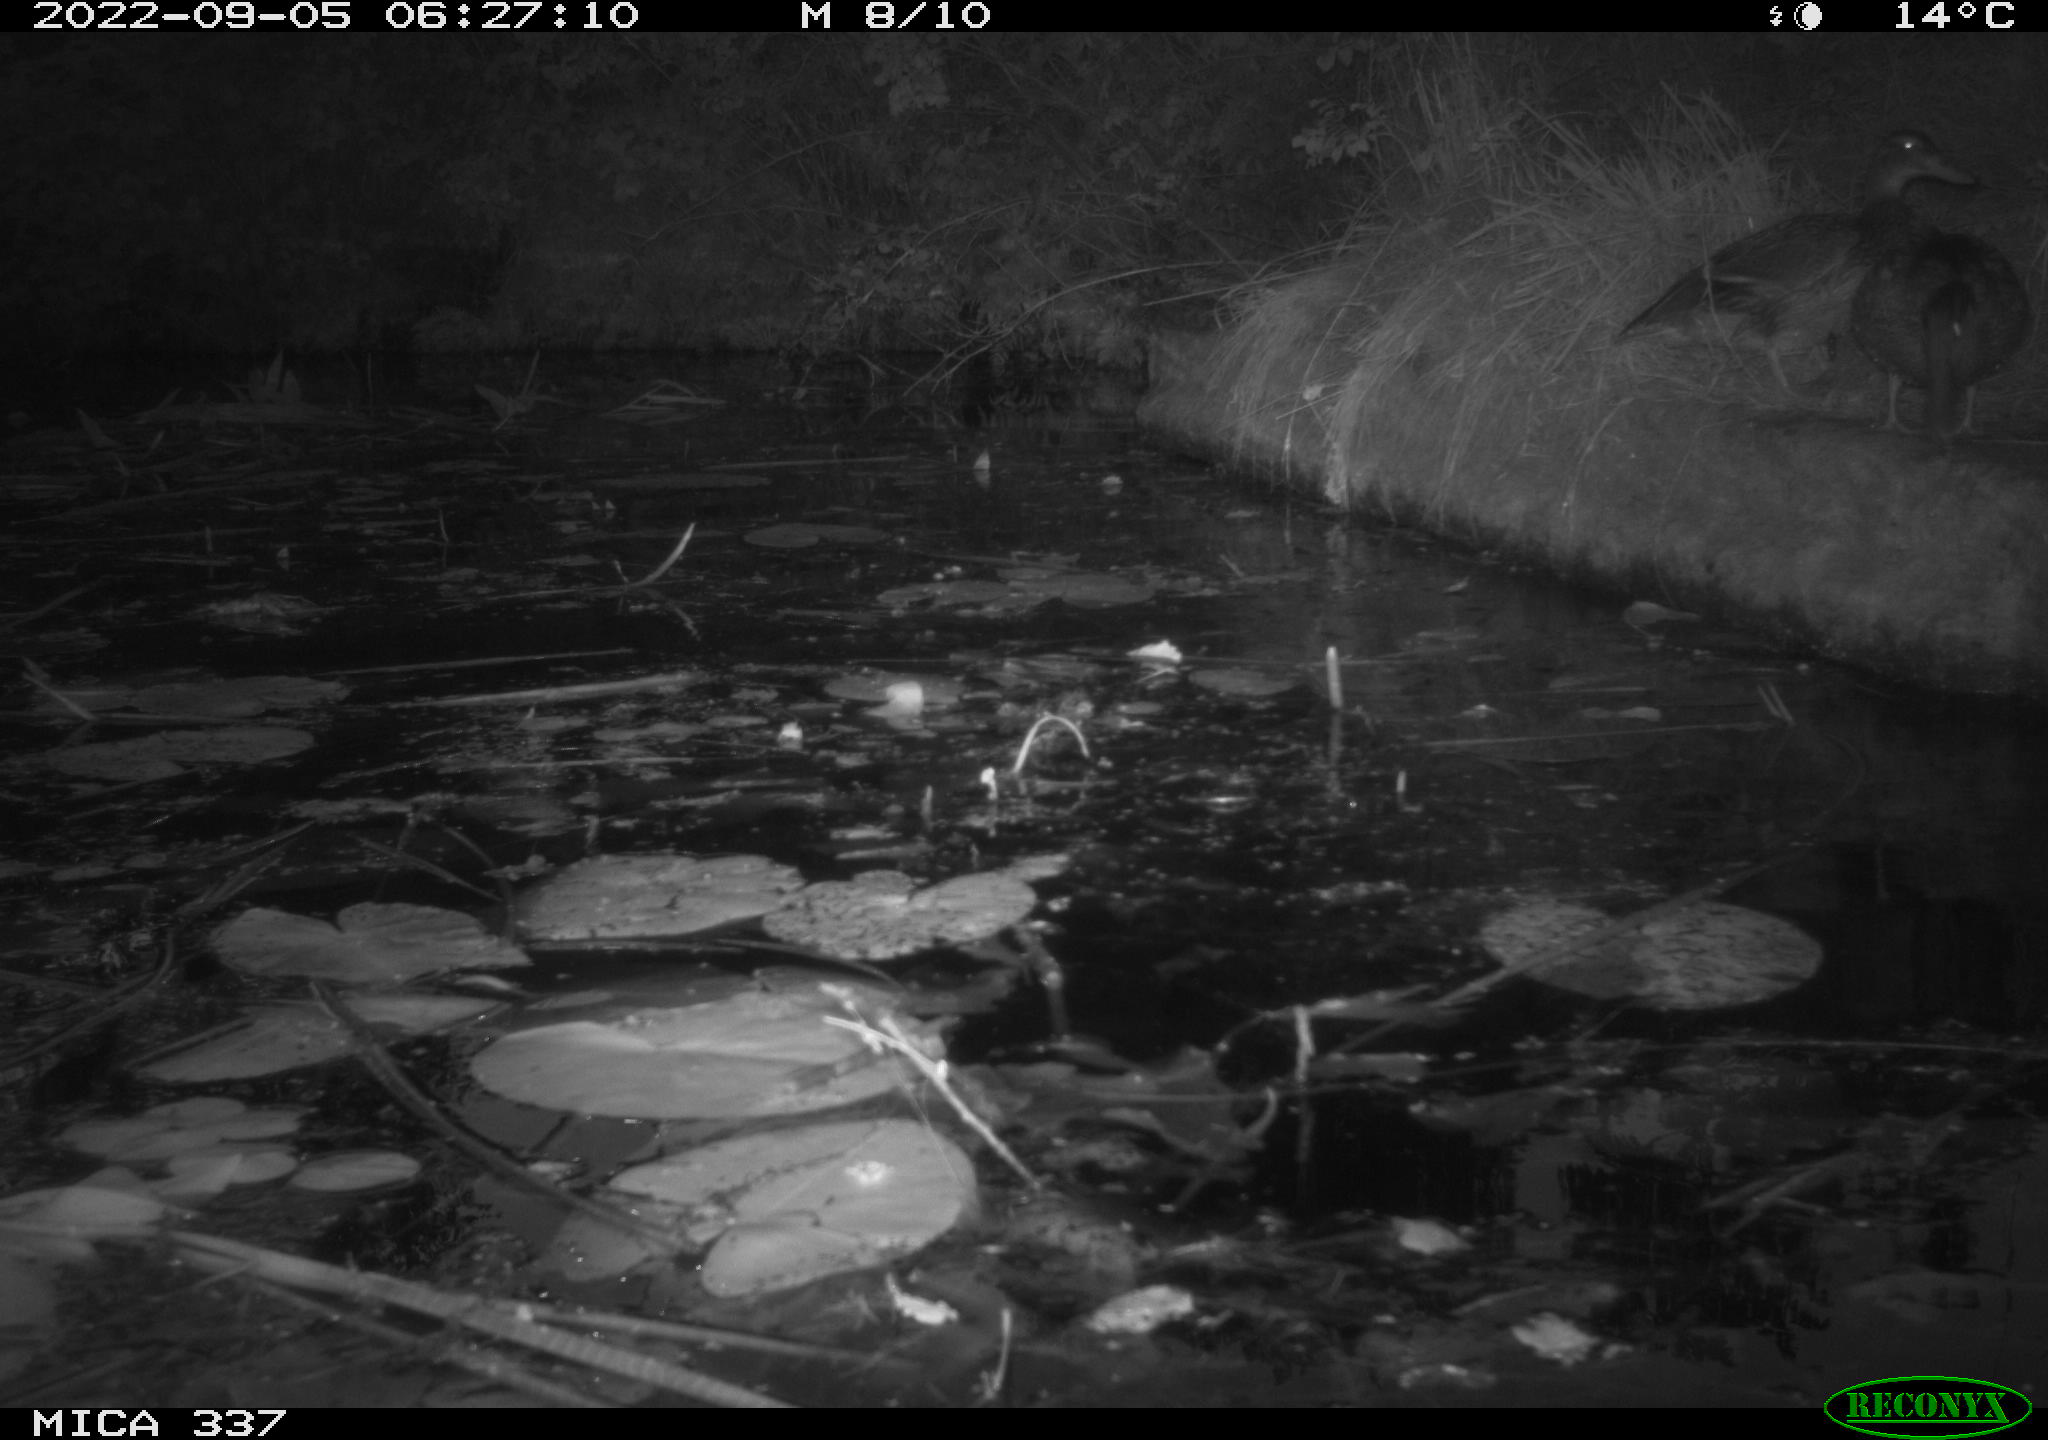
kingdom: Animalia
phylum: Chordata
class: Aves
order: Anseriformes
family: Anatidae
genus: Anas
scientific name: Anas platyrhynchos
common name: Mallard
